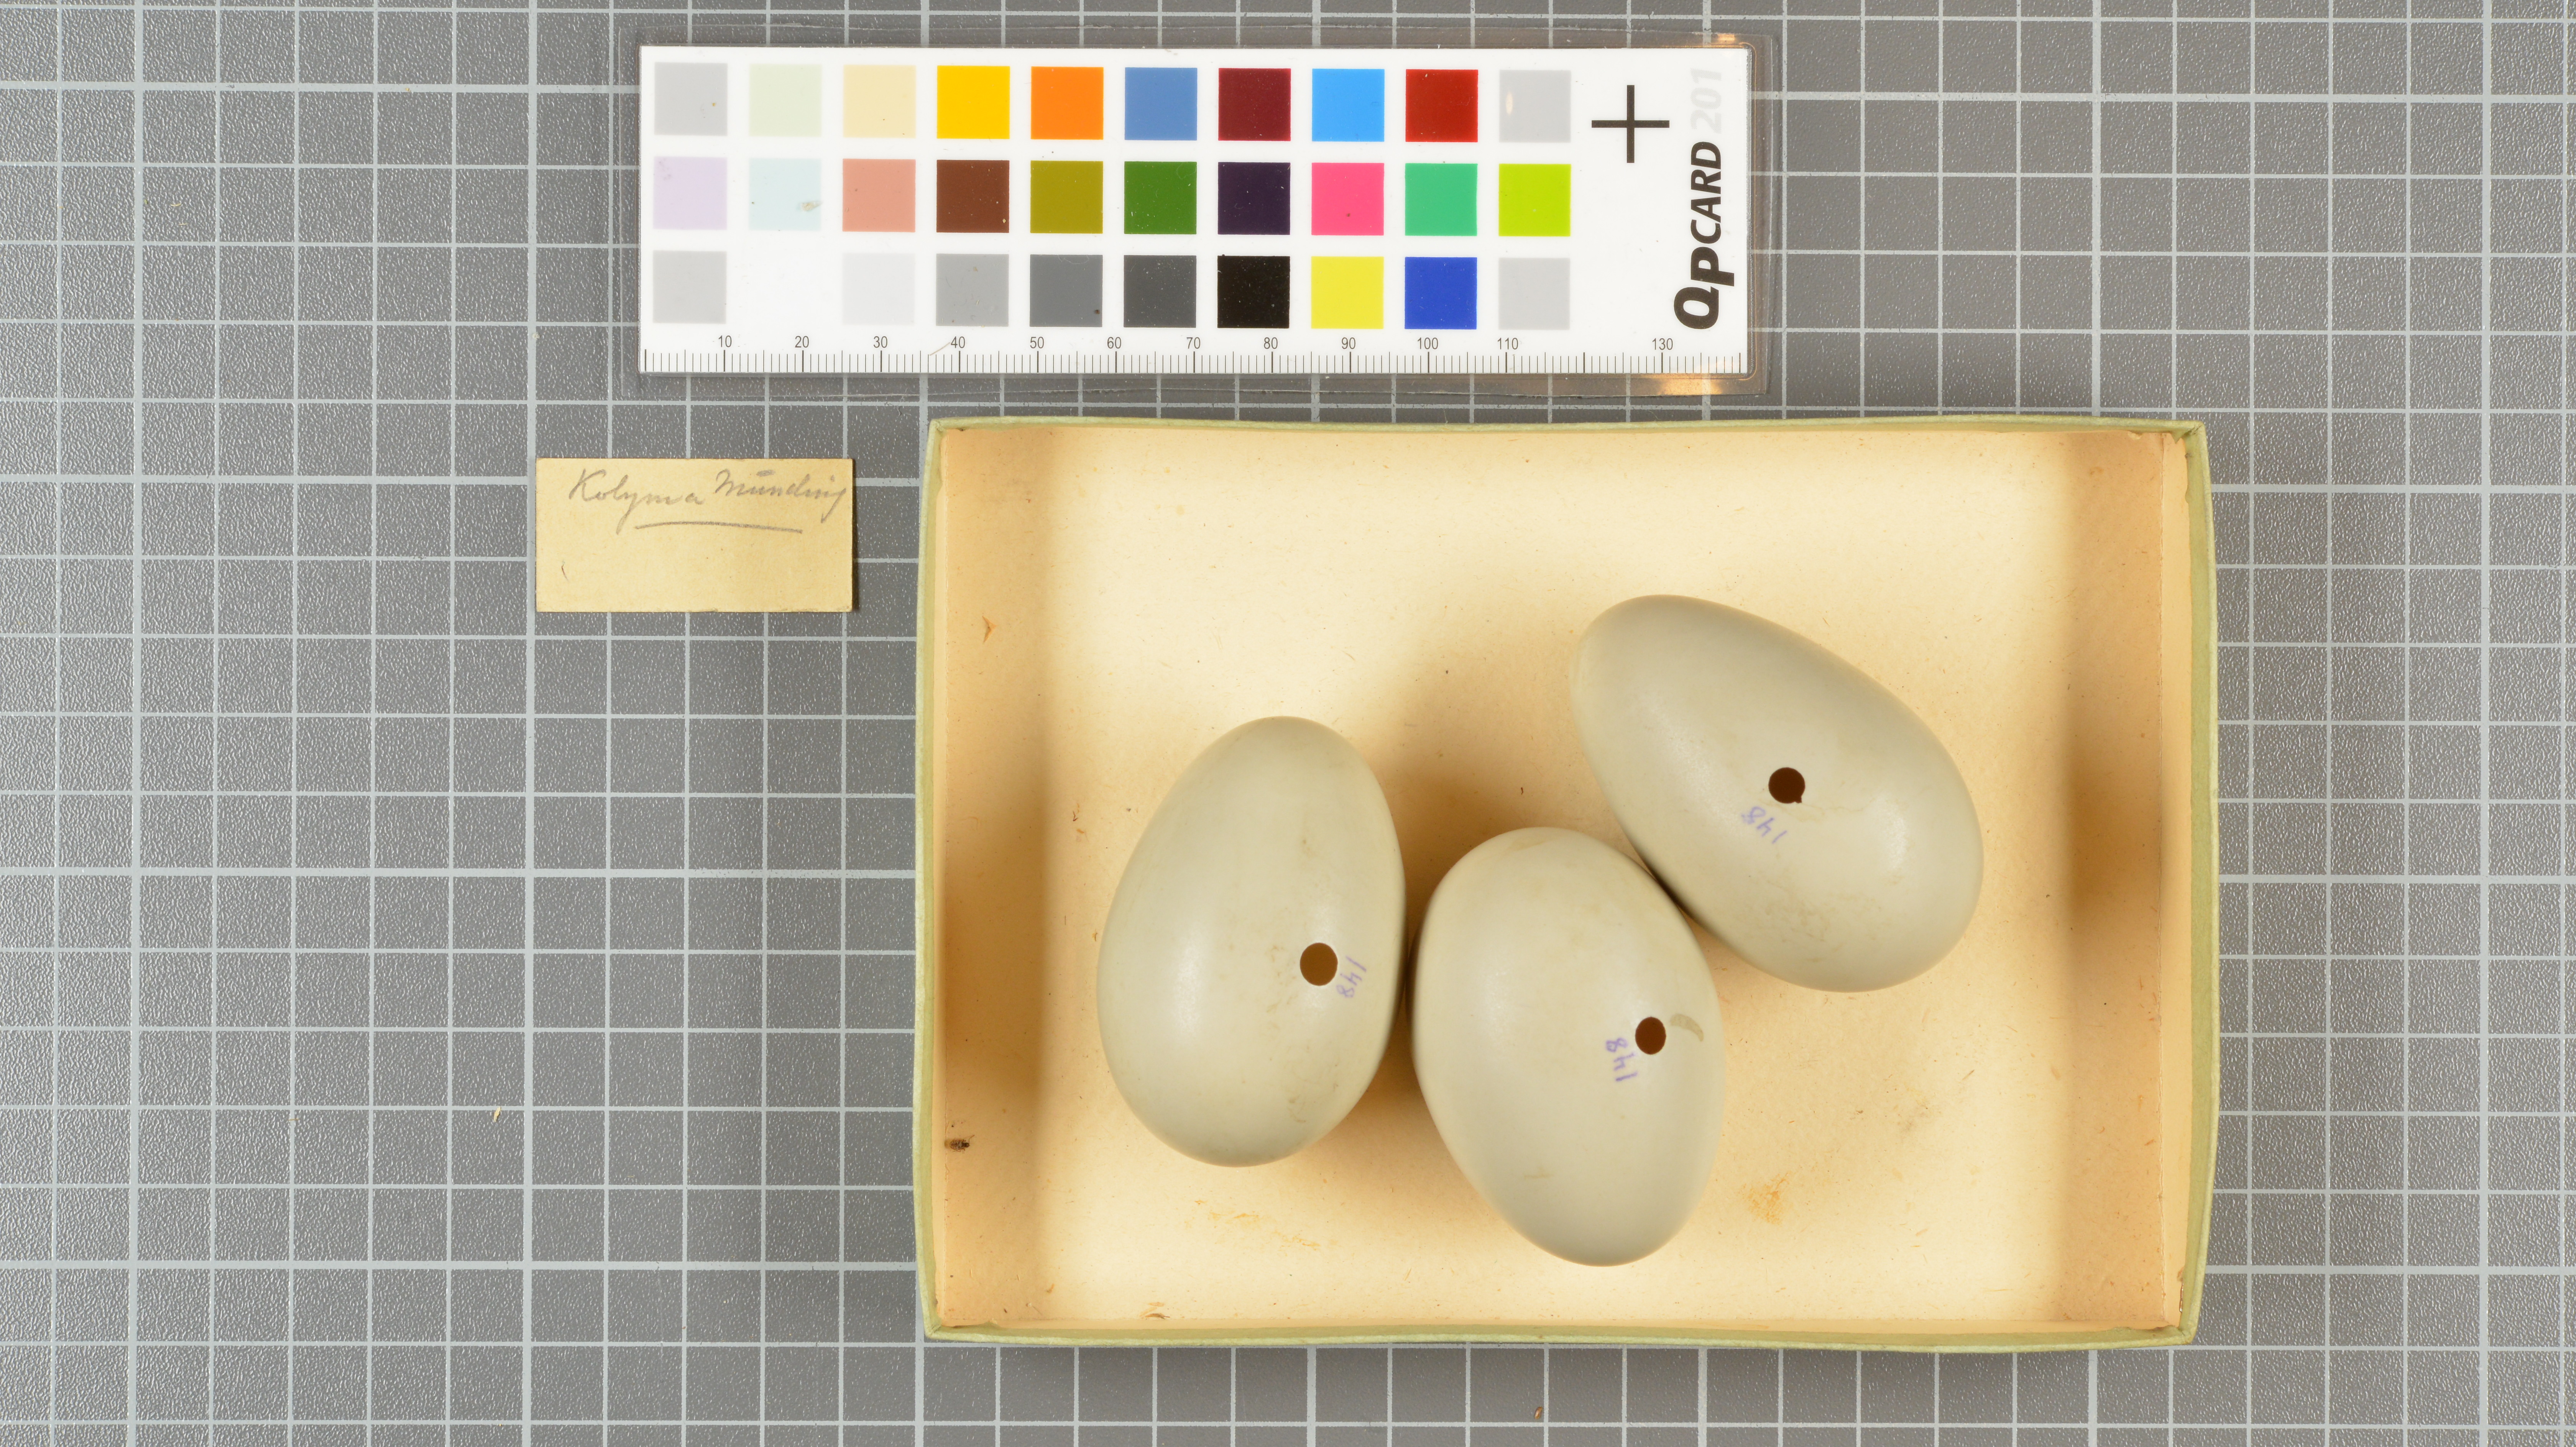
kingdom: Animalia
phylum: Chordata
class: Aves
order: Anseriformes
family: Anatidae
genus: Clangula
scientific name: Clangula hyemalis
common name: Long-tailed duck
